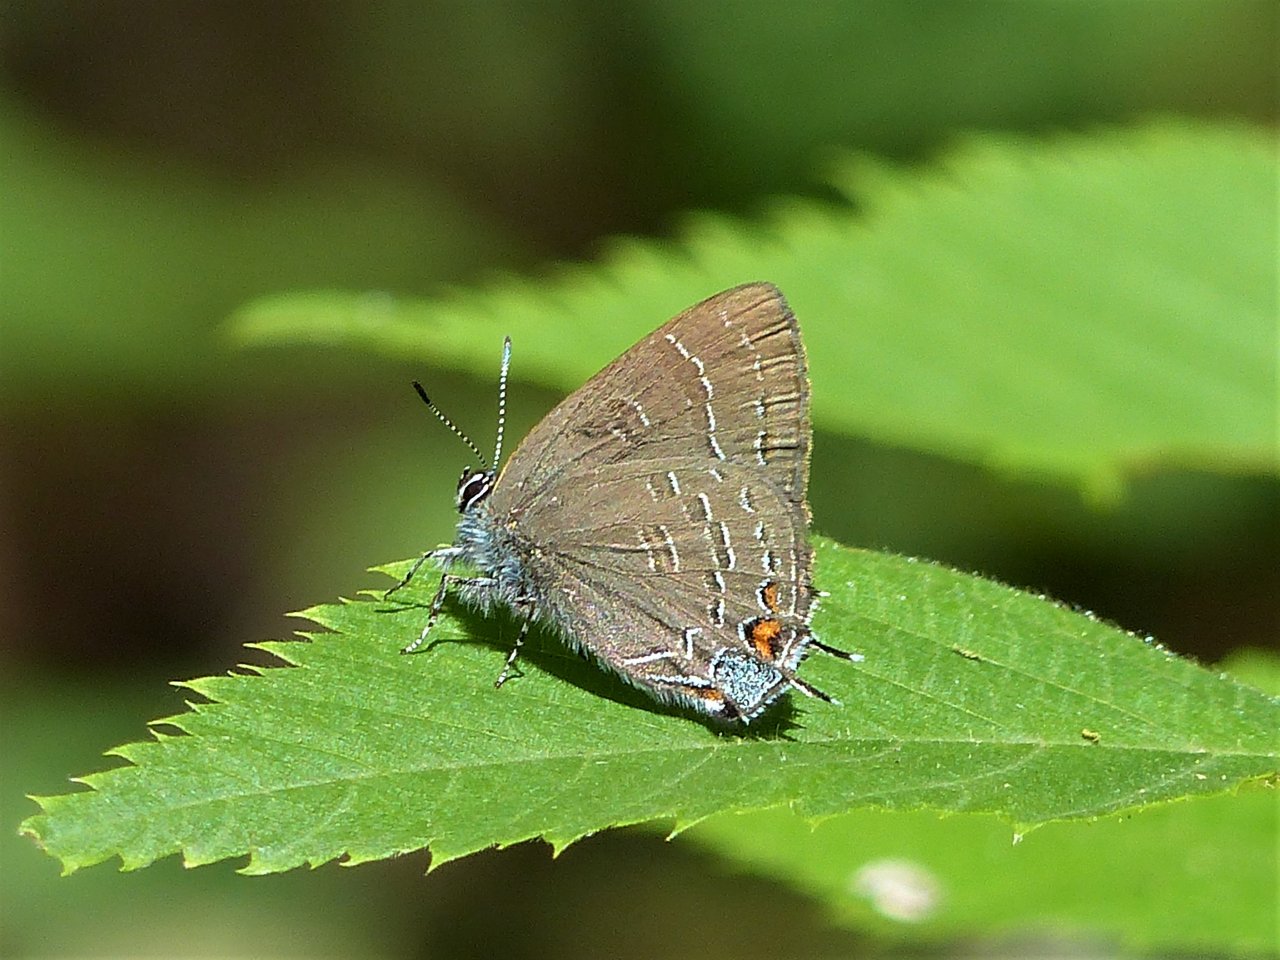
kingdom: Animalia
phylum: Arthropoda
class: Insecta
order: Lepidoptera
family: Lycaenidae
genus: Satyrium
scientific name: Satyrium calanus
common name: Banded Hairstreak
